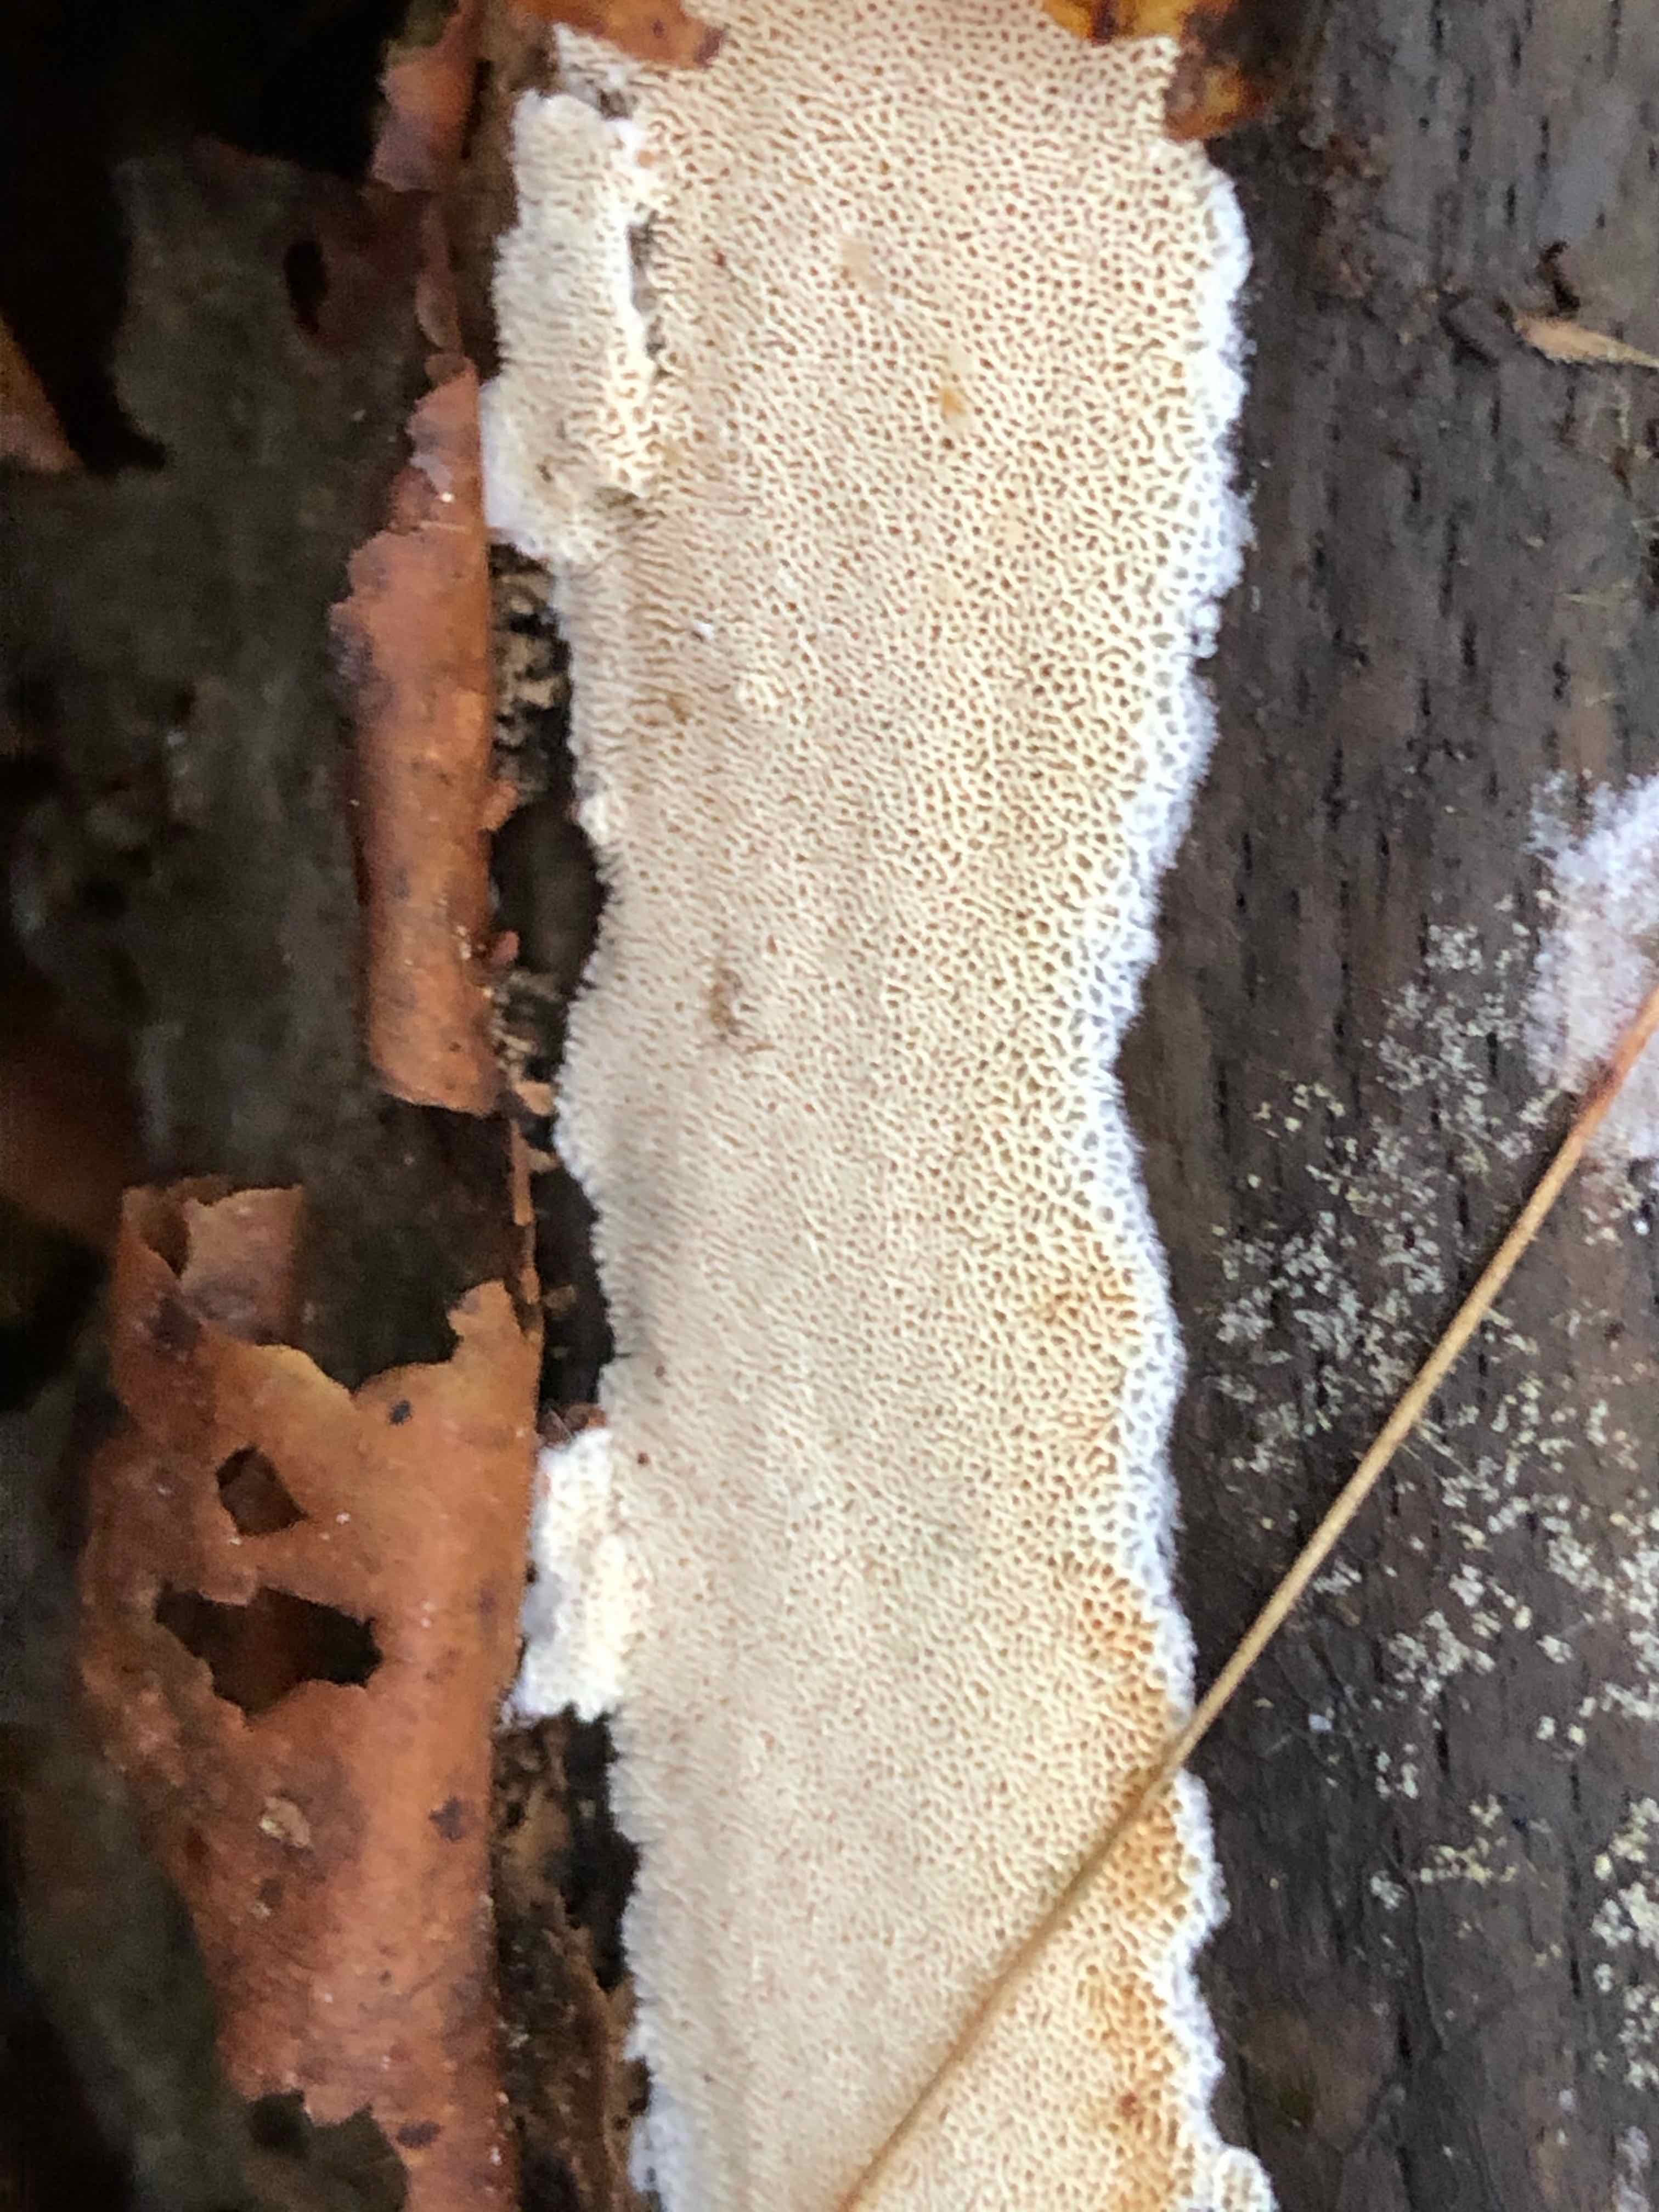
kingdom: Fungi
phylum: Basidiomycota
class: Agaricomycetes
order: Hymenochaetales
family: Schizoporaceae
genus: Xylodon
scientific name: Xylodon subtropicus
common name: labyrint-tandsvamp
